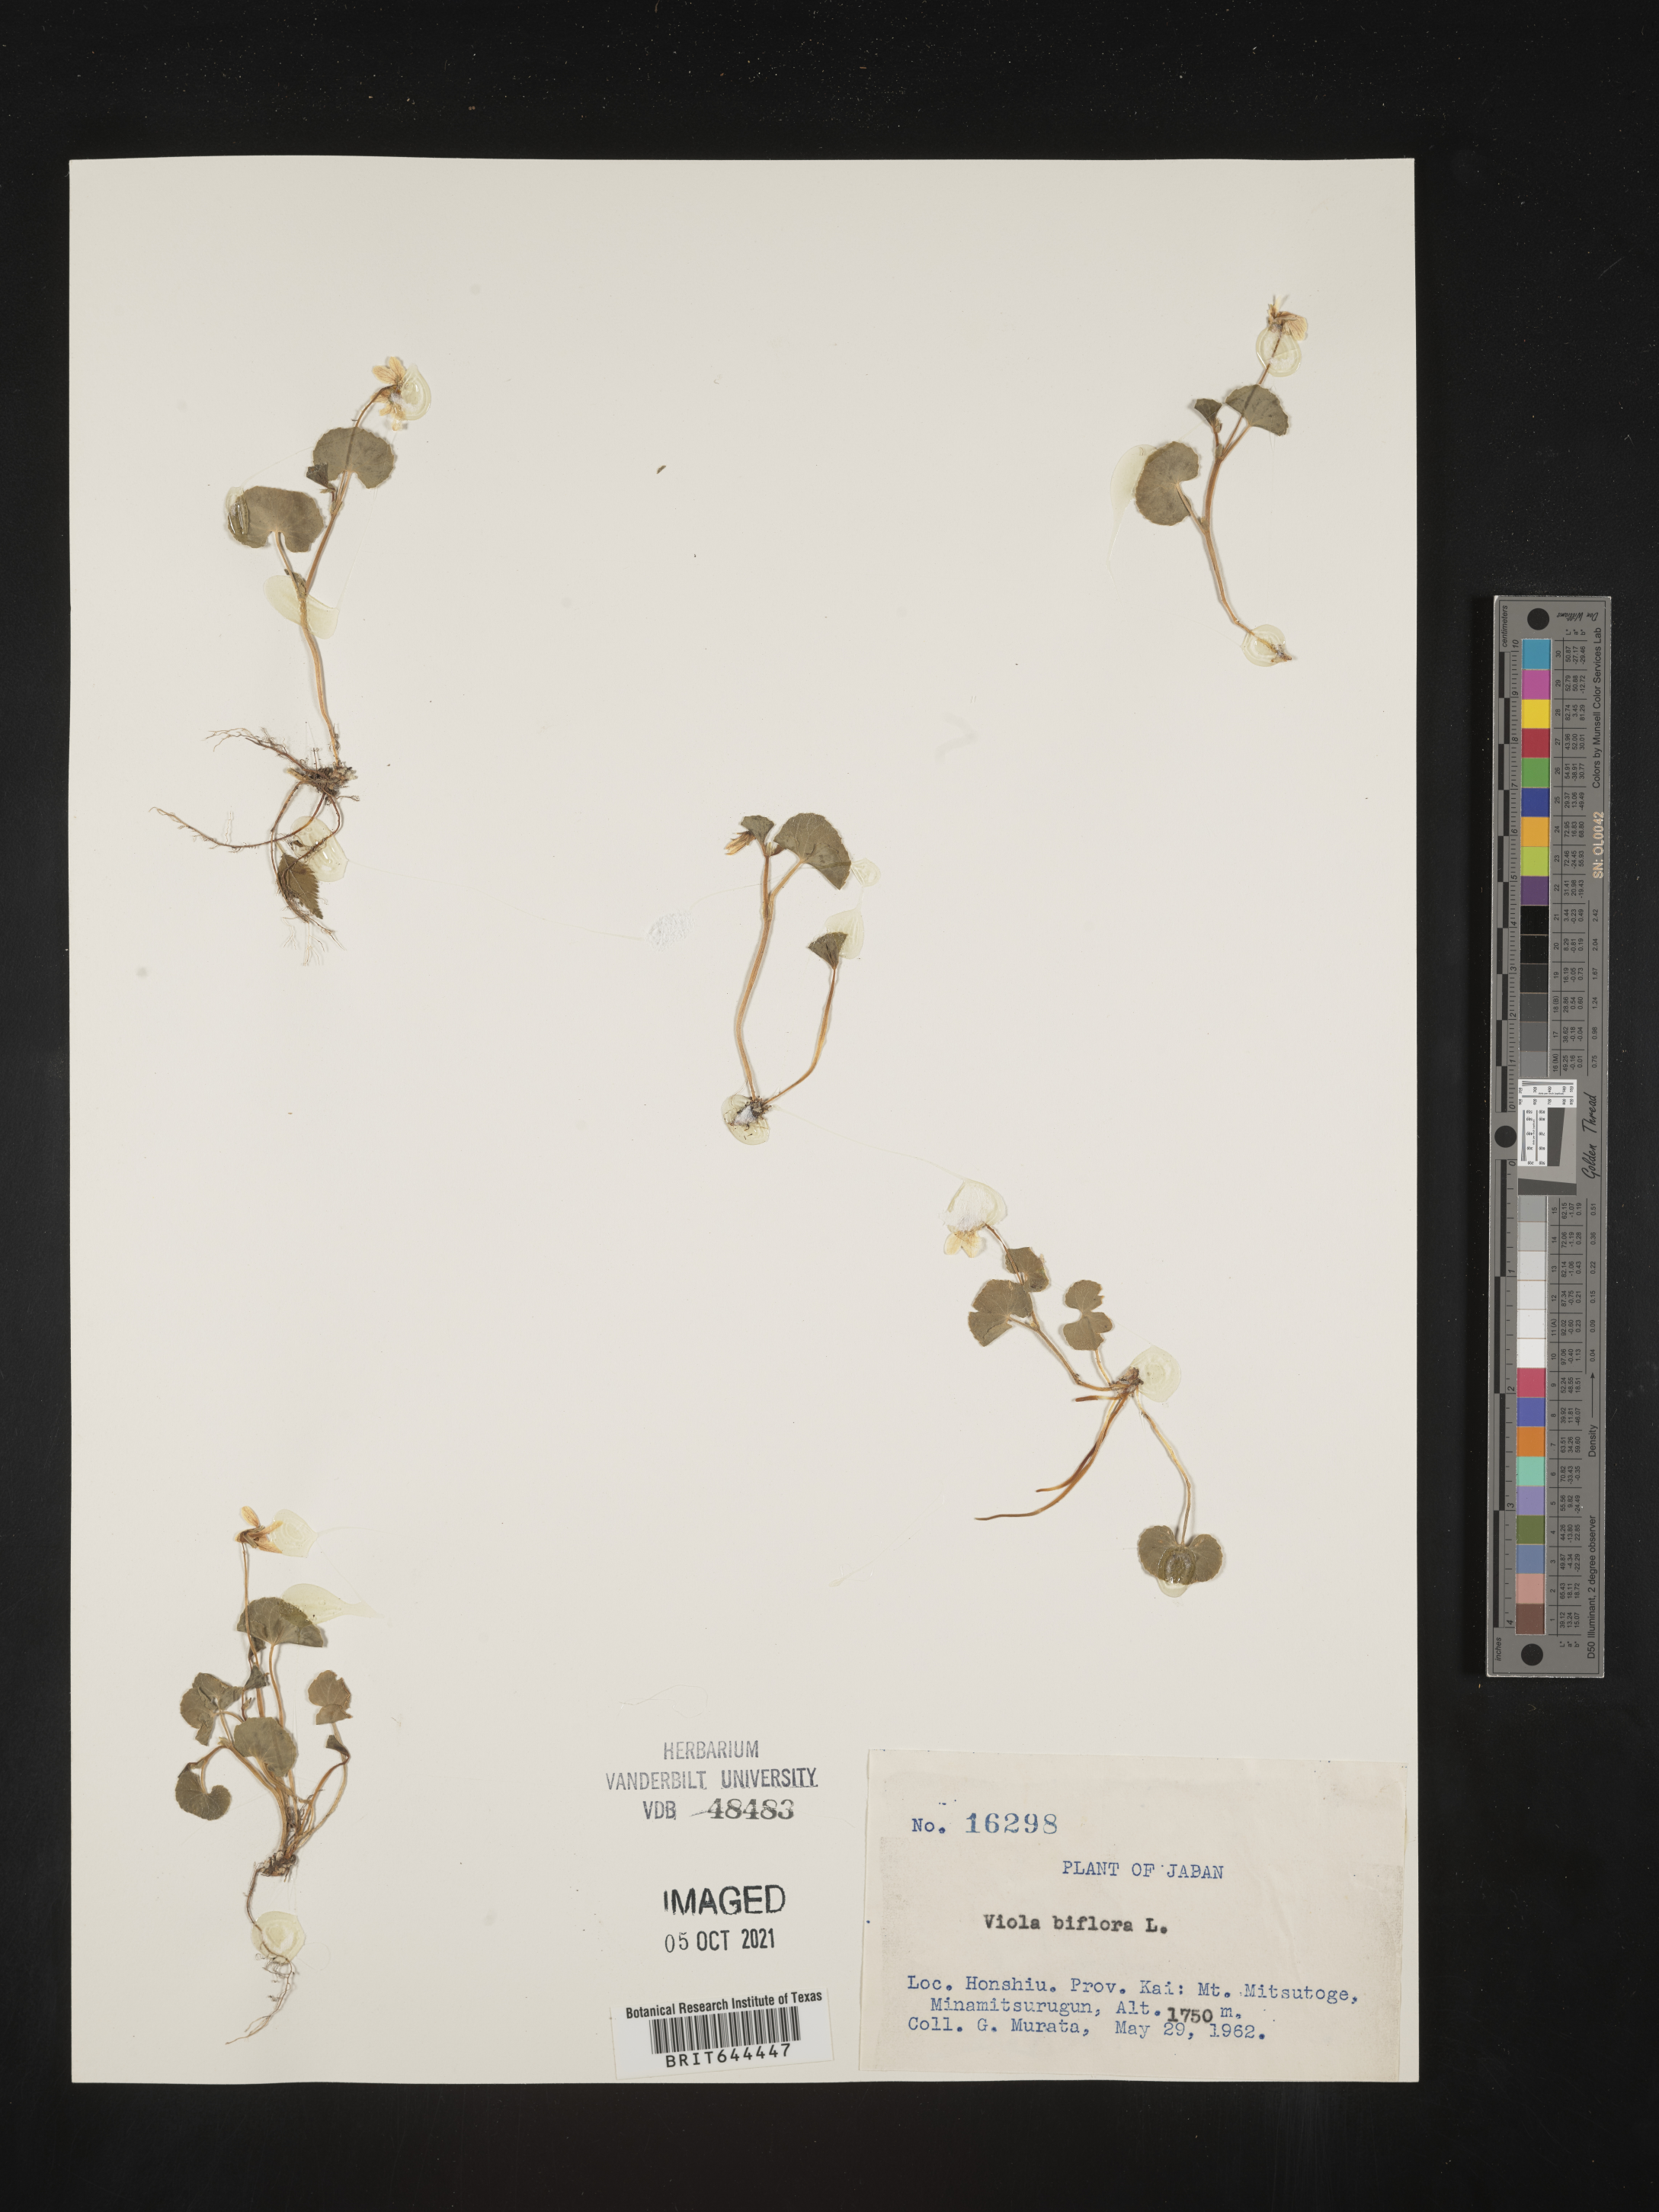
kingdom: Plantae
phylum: Tracheophyta
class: Magnoliopsida
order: Malpighiales
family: Violaceae
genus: Viola
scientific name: Viola
